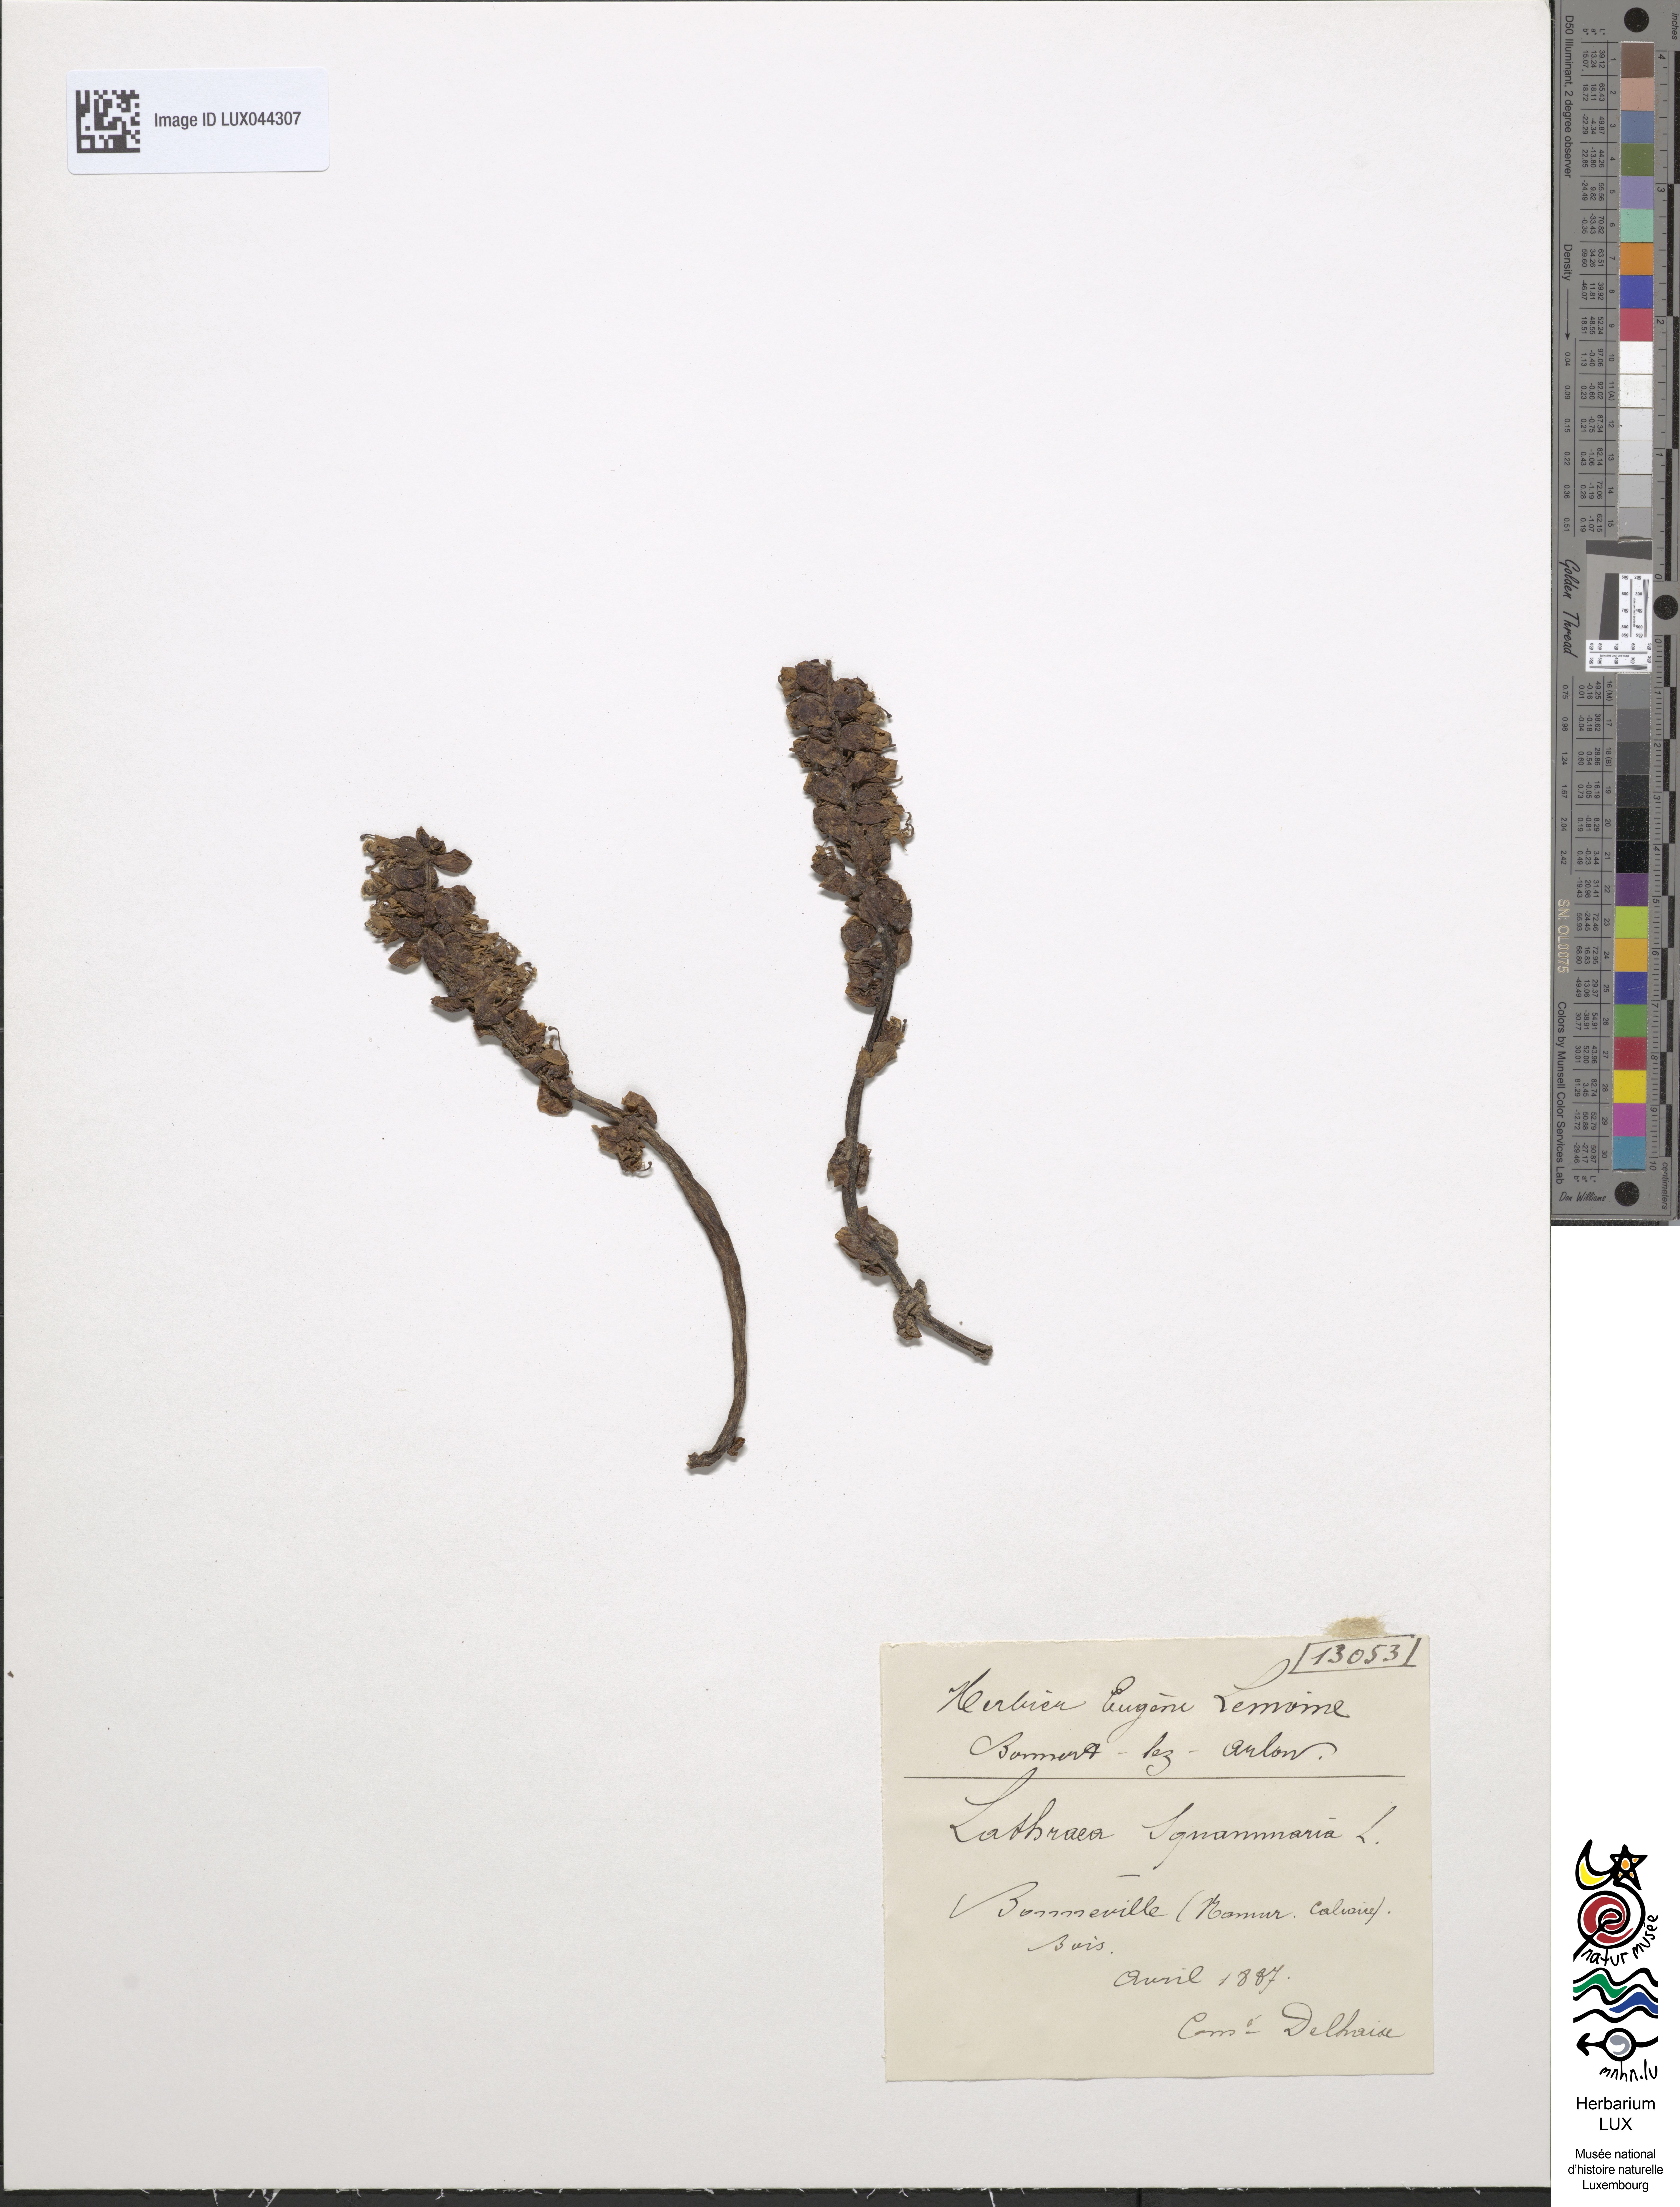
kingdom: Plantae
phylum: Tracheophyta
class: Magnoliopsida
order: Lamiales
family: Orobanchaceae
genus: Lathraea
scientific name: Lathraea squamaria
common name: Toothwort
